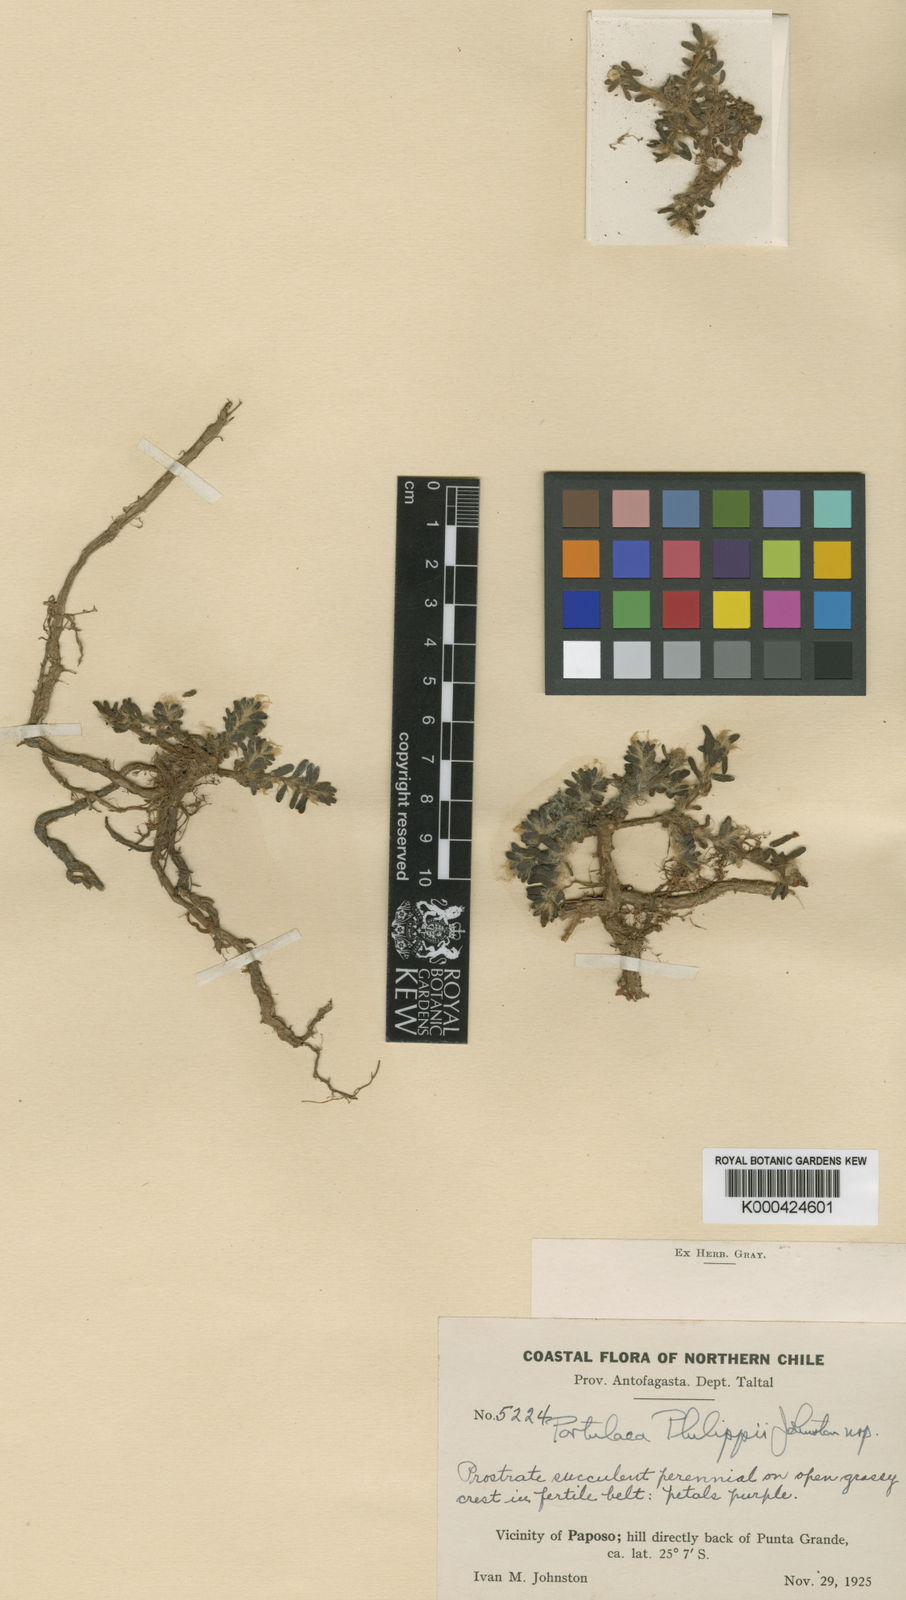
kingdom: Plantae
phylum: Tracheophyta
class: Magnoliopsida
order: Caryophyllales
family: Portulacaceae
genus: Portulaca
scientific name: Portulaca philippii
